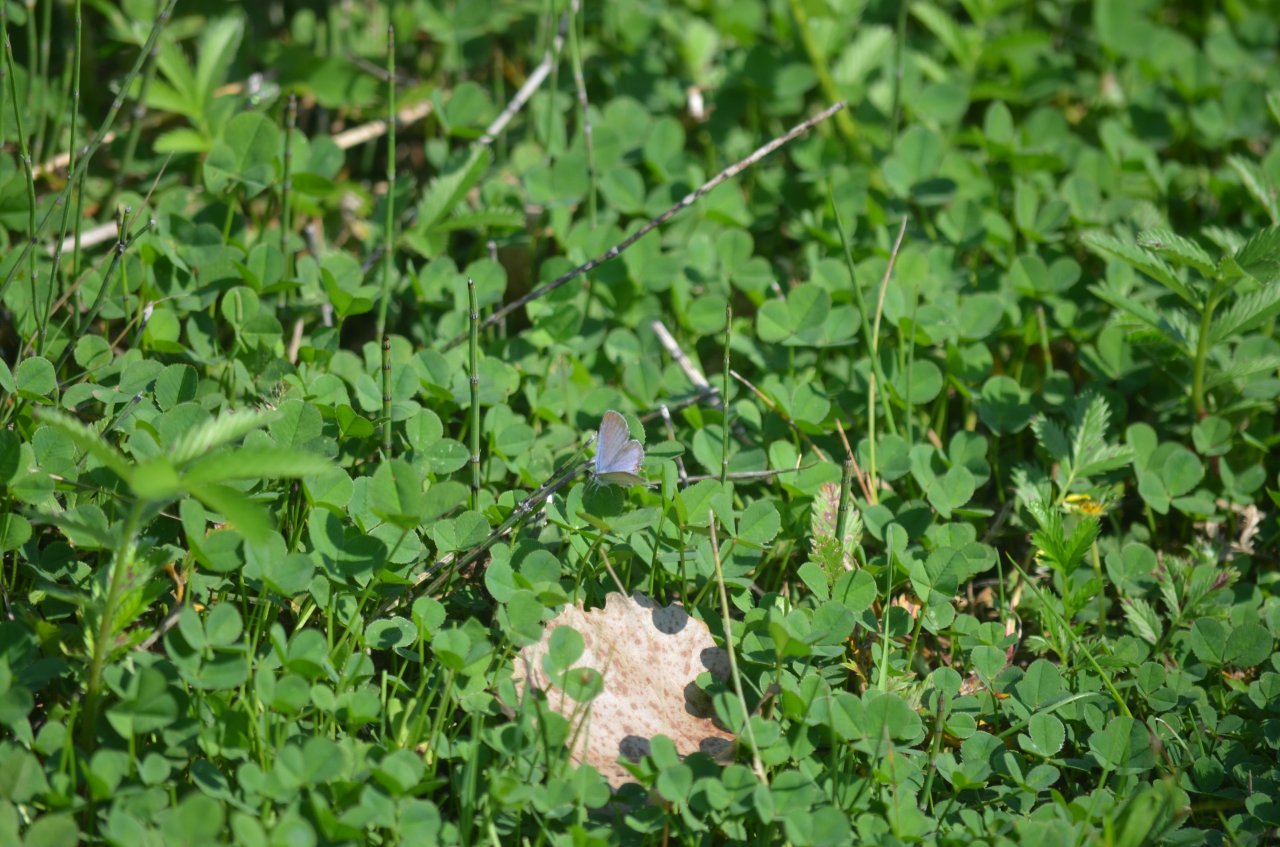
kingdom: Animalia
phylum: Arthropoda
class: Insecta
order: Lepidoptera
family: Lycaenidae
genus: Elkalyce
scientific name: Elkalyce comyntas
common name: Eastern Tailed-Blue
